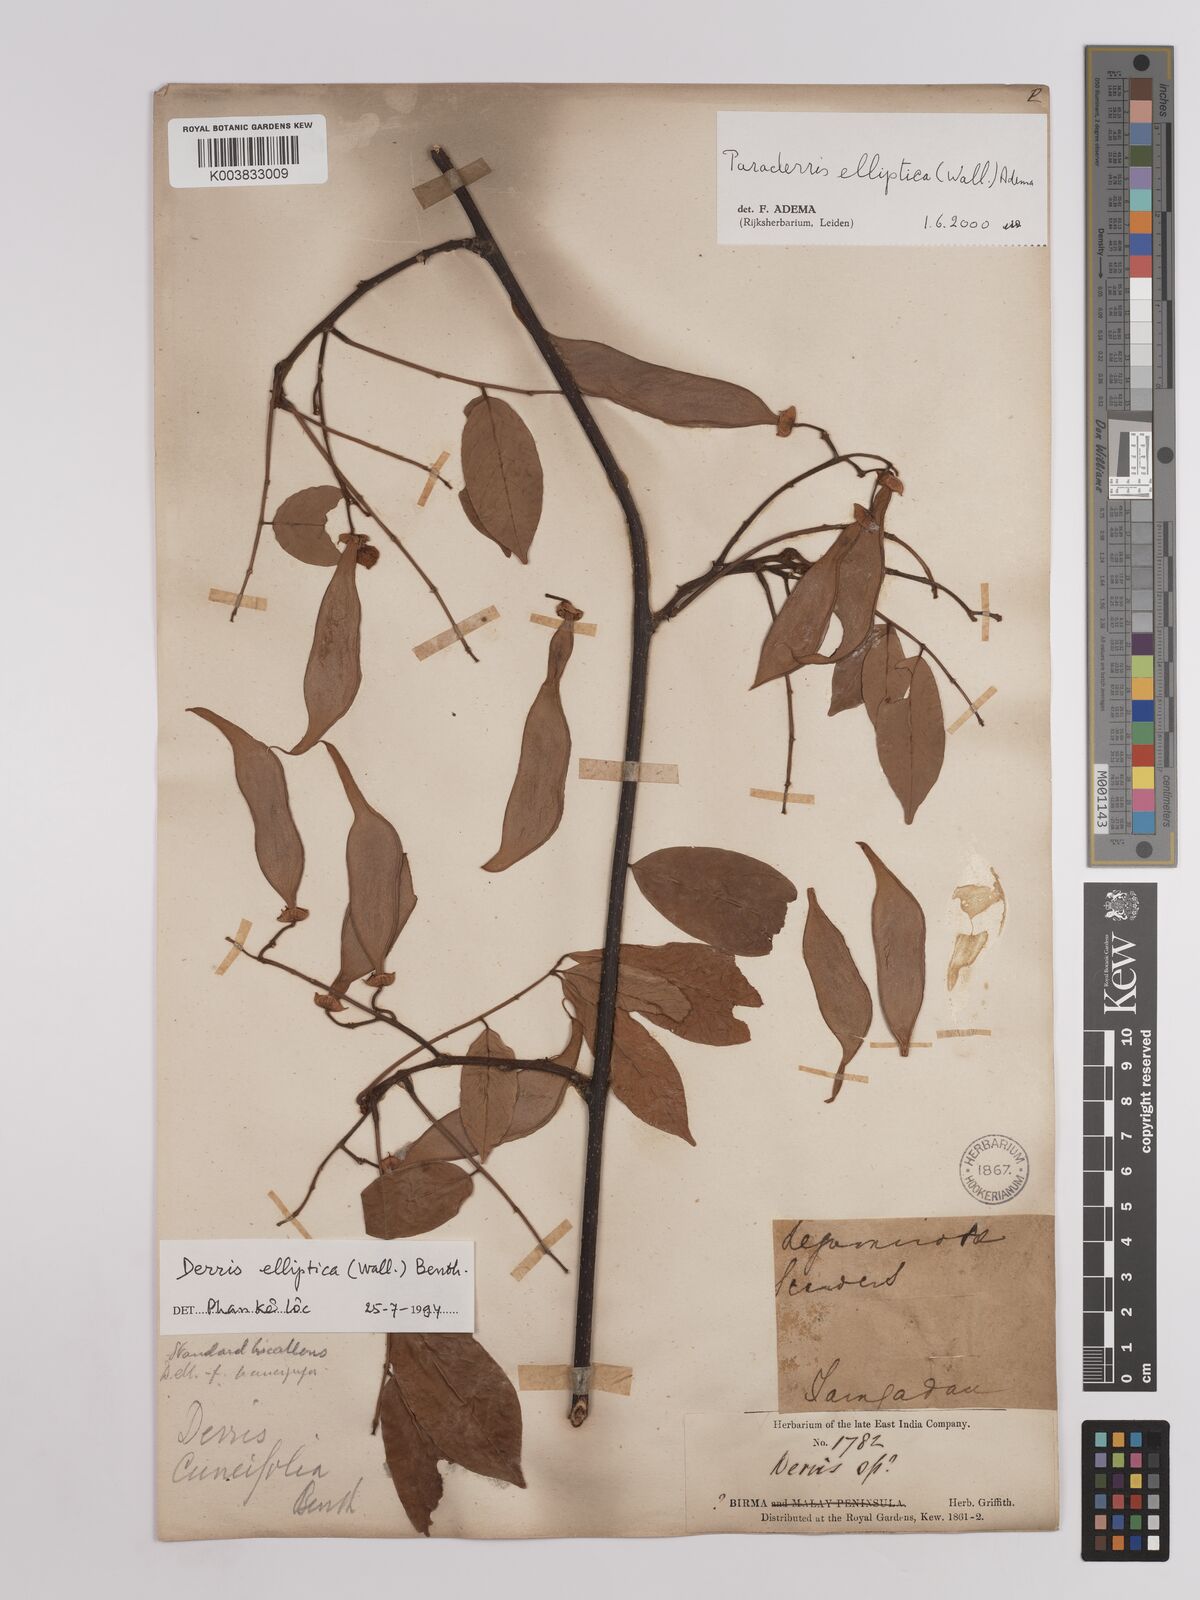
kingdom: Plantae
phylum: Tracheophyta
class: Magnoliopsida
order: Fabales
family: Fabaceae
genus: Derris
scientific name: Derris elliptica
